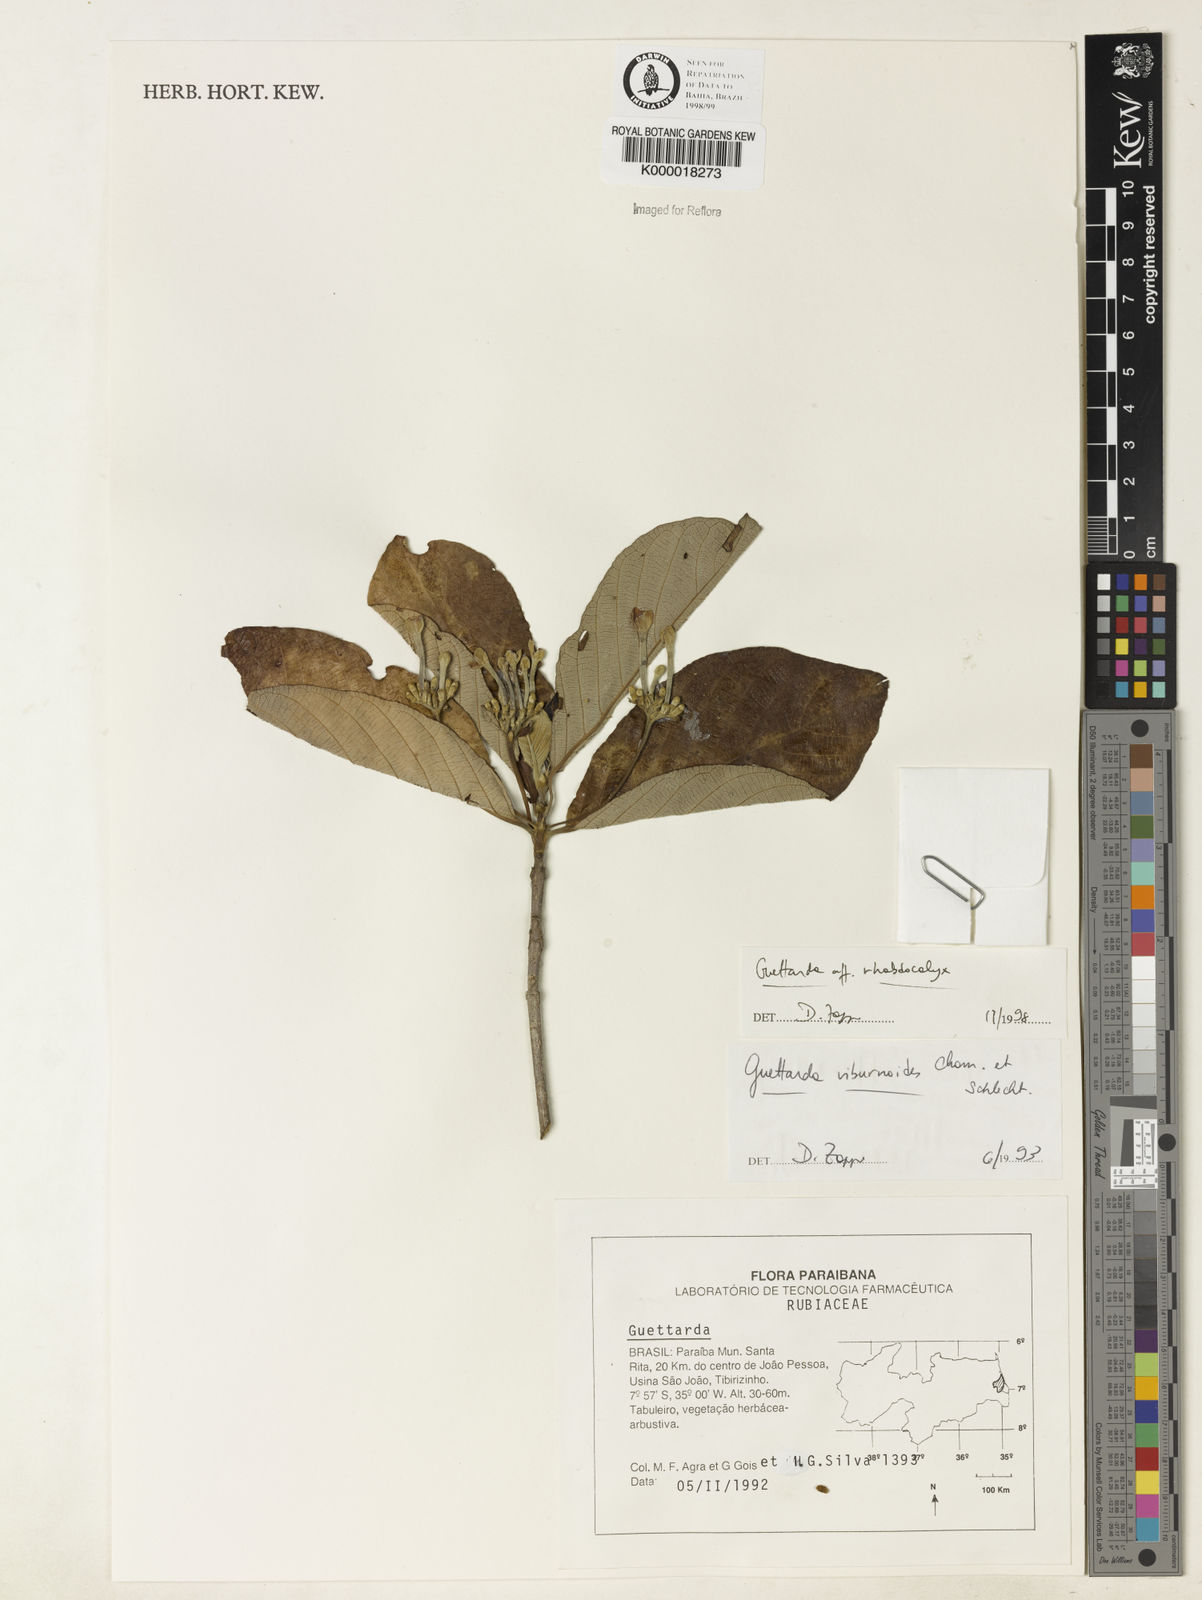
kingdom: Plantae
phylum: Tracheophyta
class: Magnoliopsida
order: Gentianales
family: Rubiaceae
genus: Guettarda
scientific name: Guettarda rhabdocalyx
